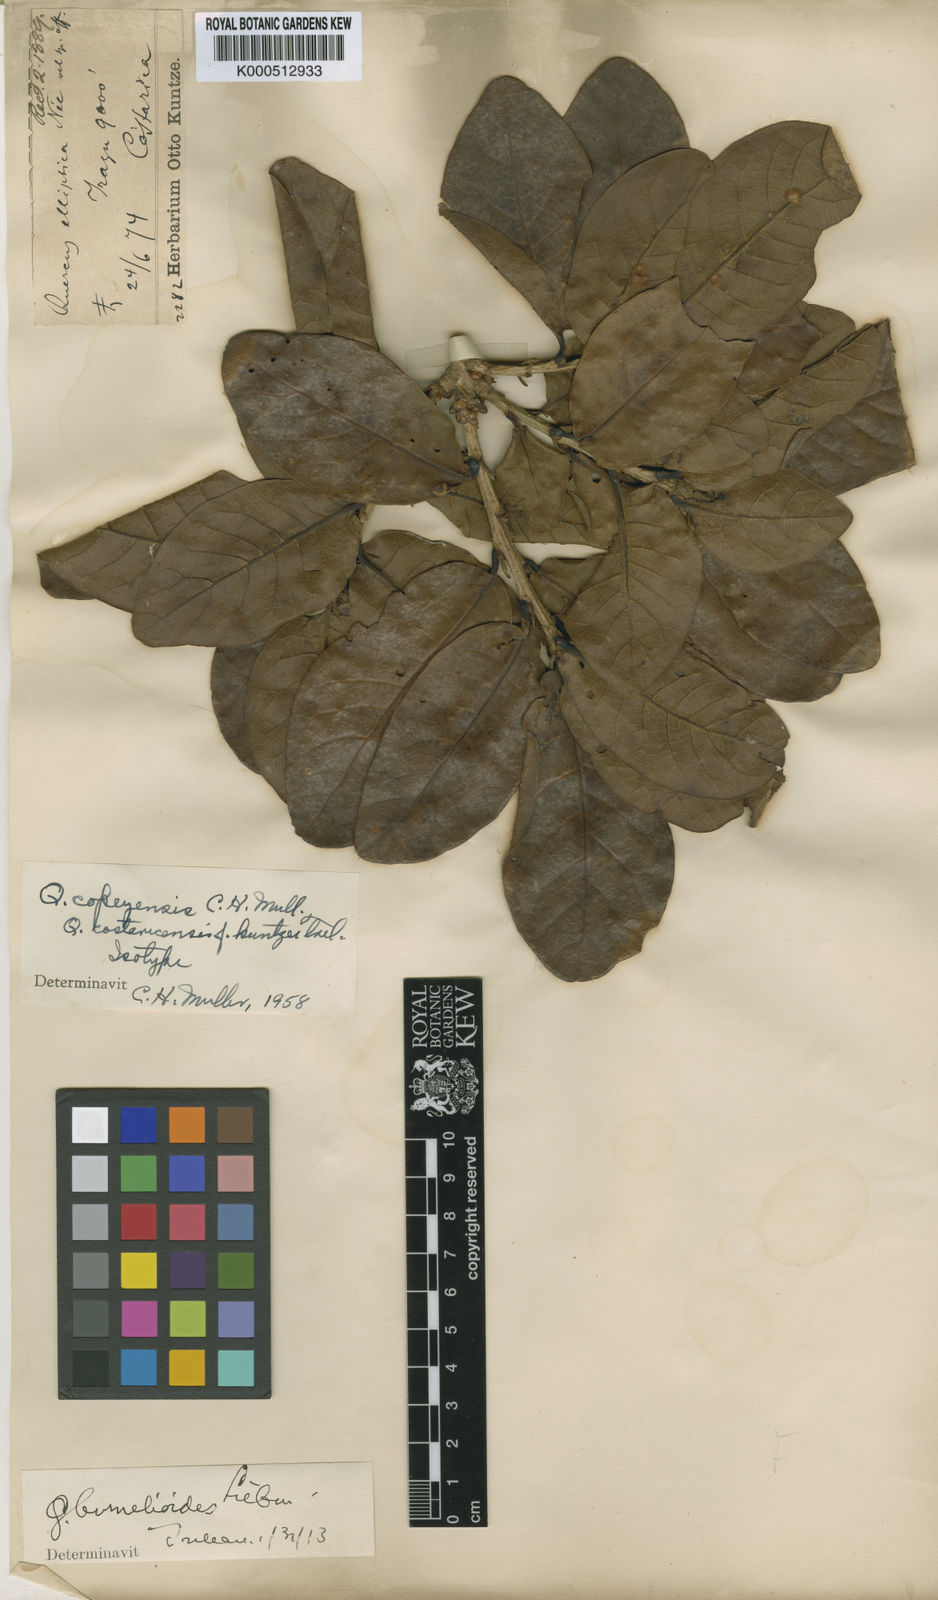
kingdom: Plantae
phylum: Tracheophyta
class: Magnoliopsida
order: Fagales
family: Fagaceae
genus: Quercus
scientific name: Quercus sapotifolia
